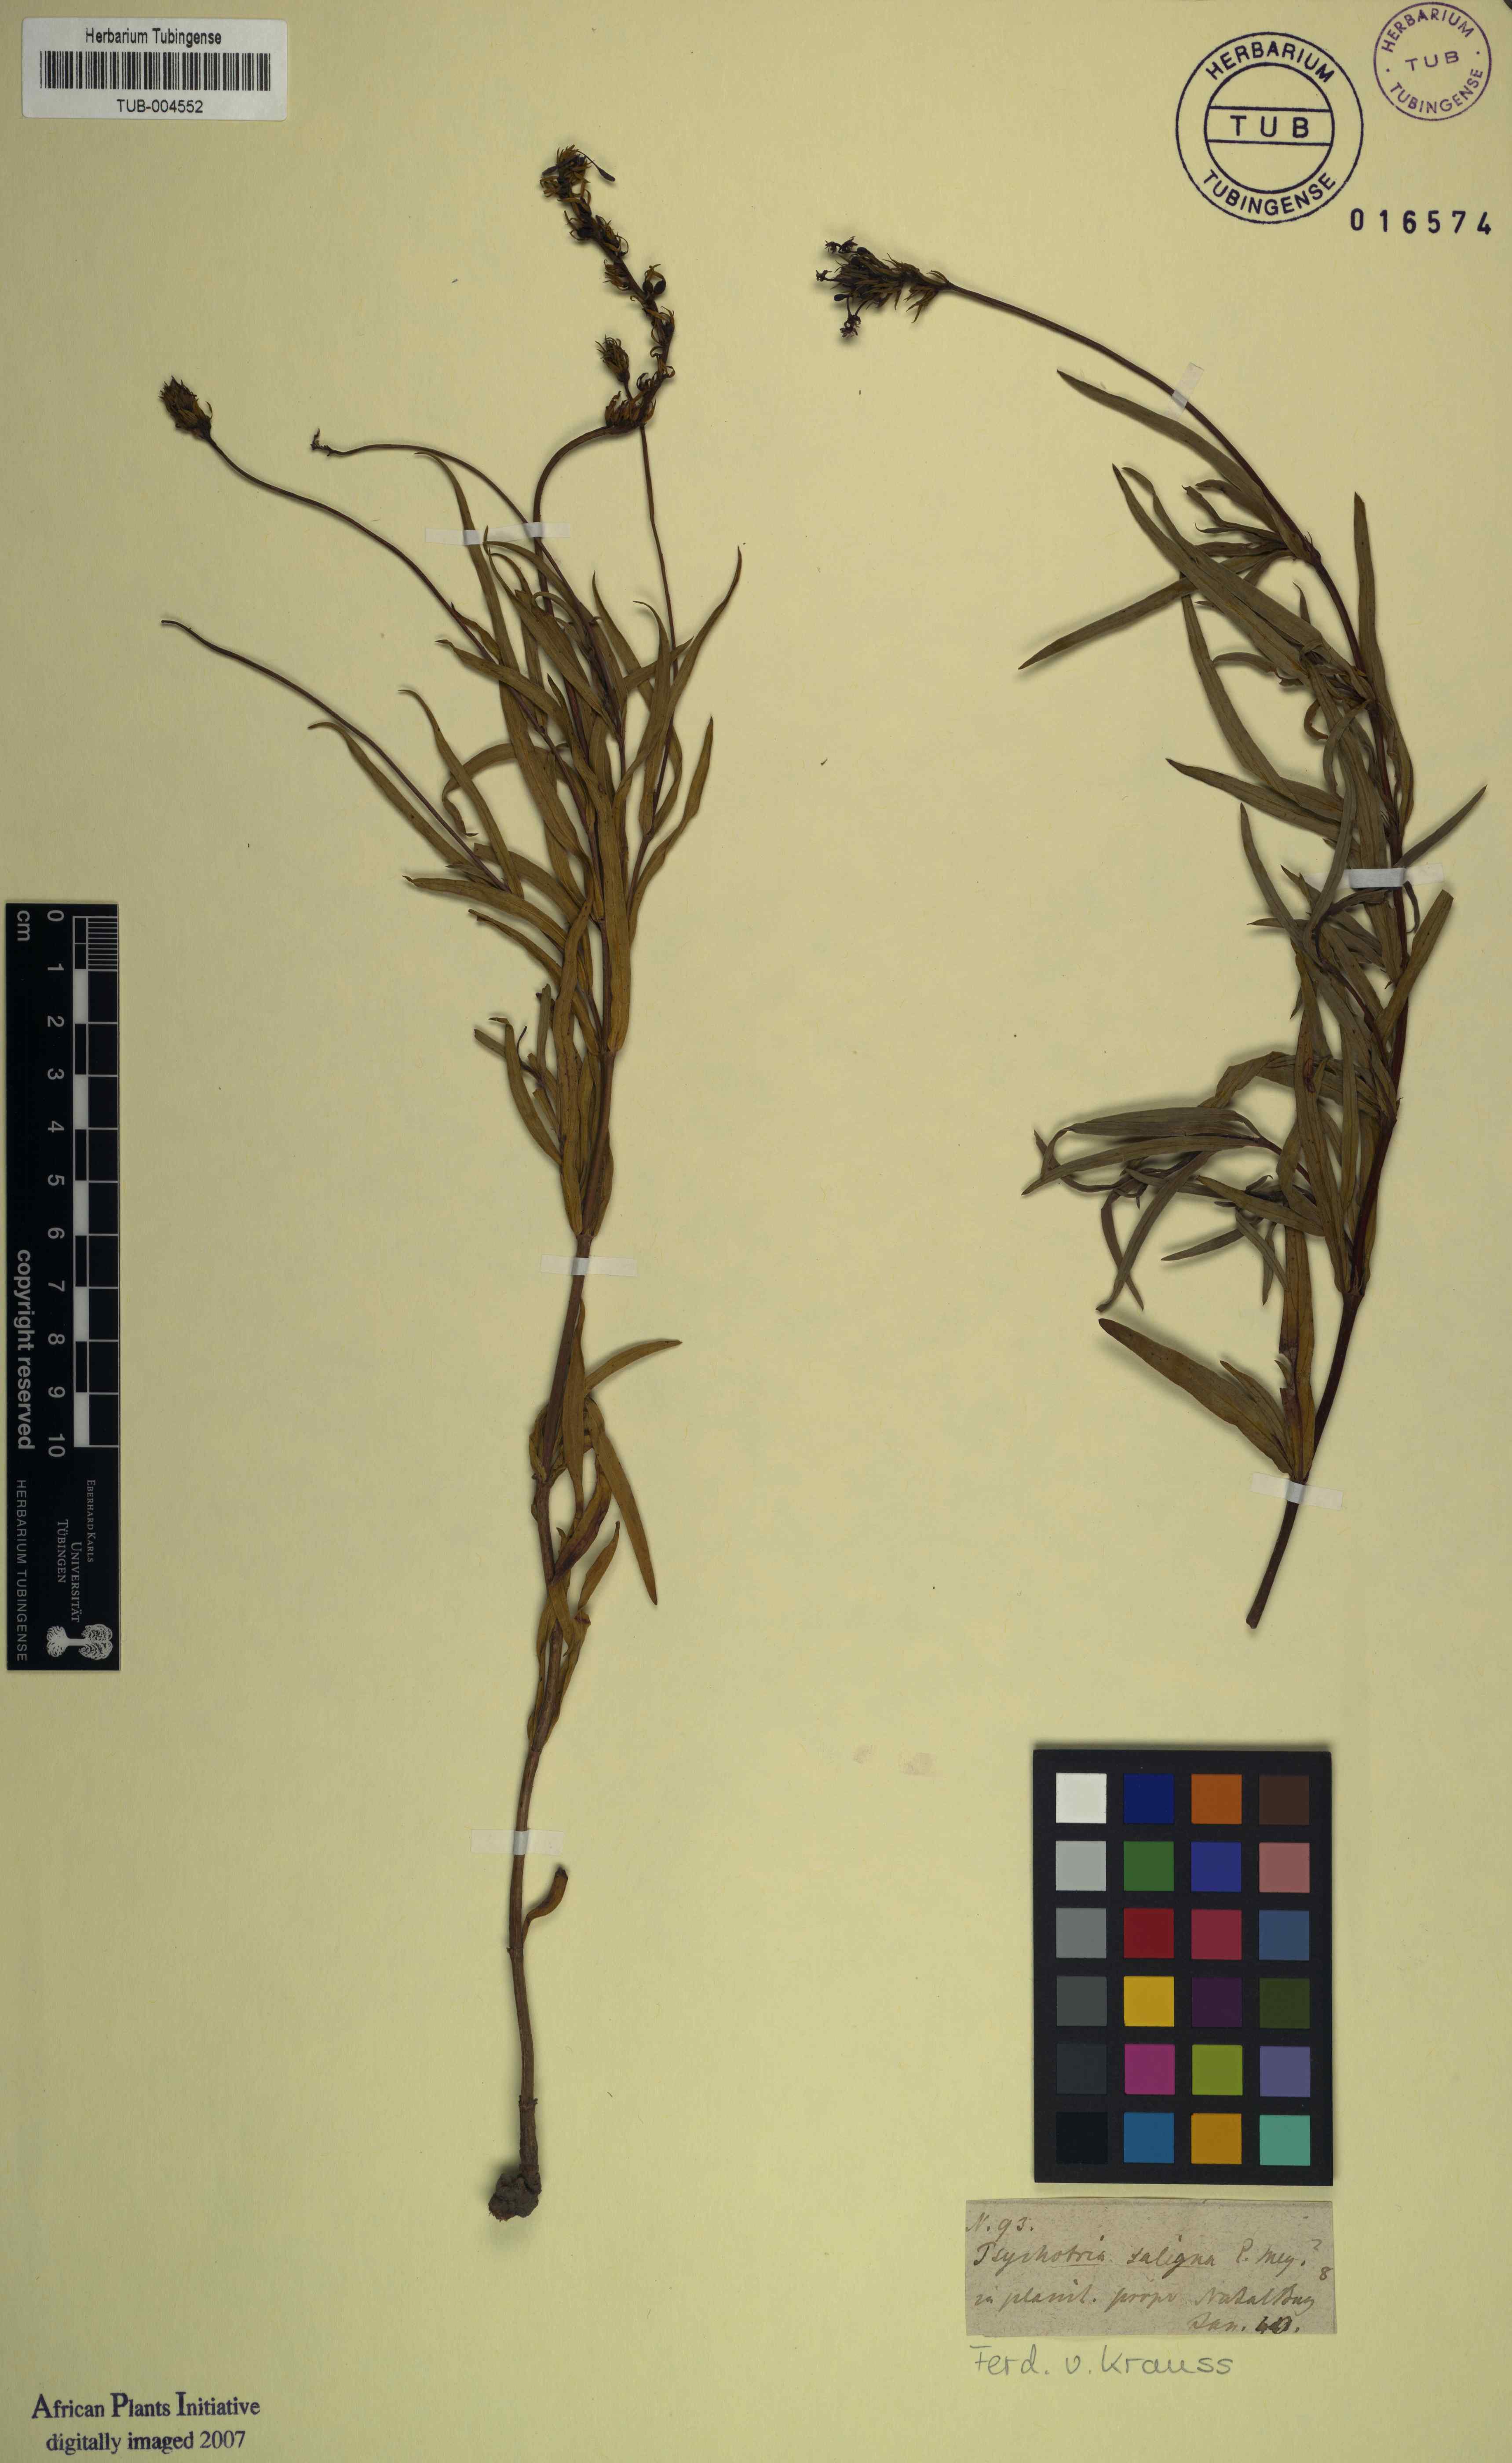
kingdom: Plantae
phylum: Tracheophyta
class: Magnoliopsida
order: Gentianales
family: Rubiaceae
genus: Empogona
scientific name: Empogona lanceolata
